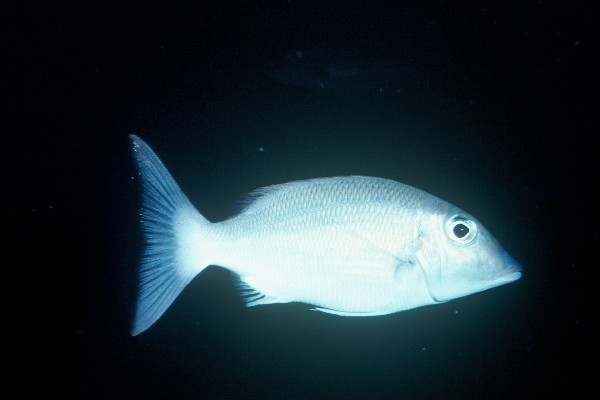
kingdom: Animalia
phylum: Chordata
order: Perciformes
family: Lethrinidae
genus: Lethrinus
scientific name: Lethrinus rubrioperculatus
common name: Spotcheek emperor
